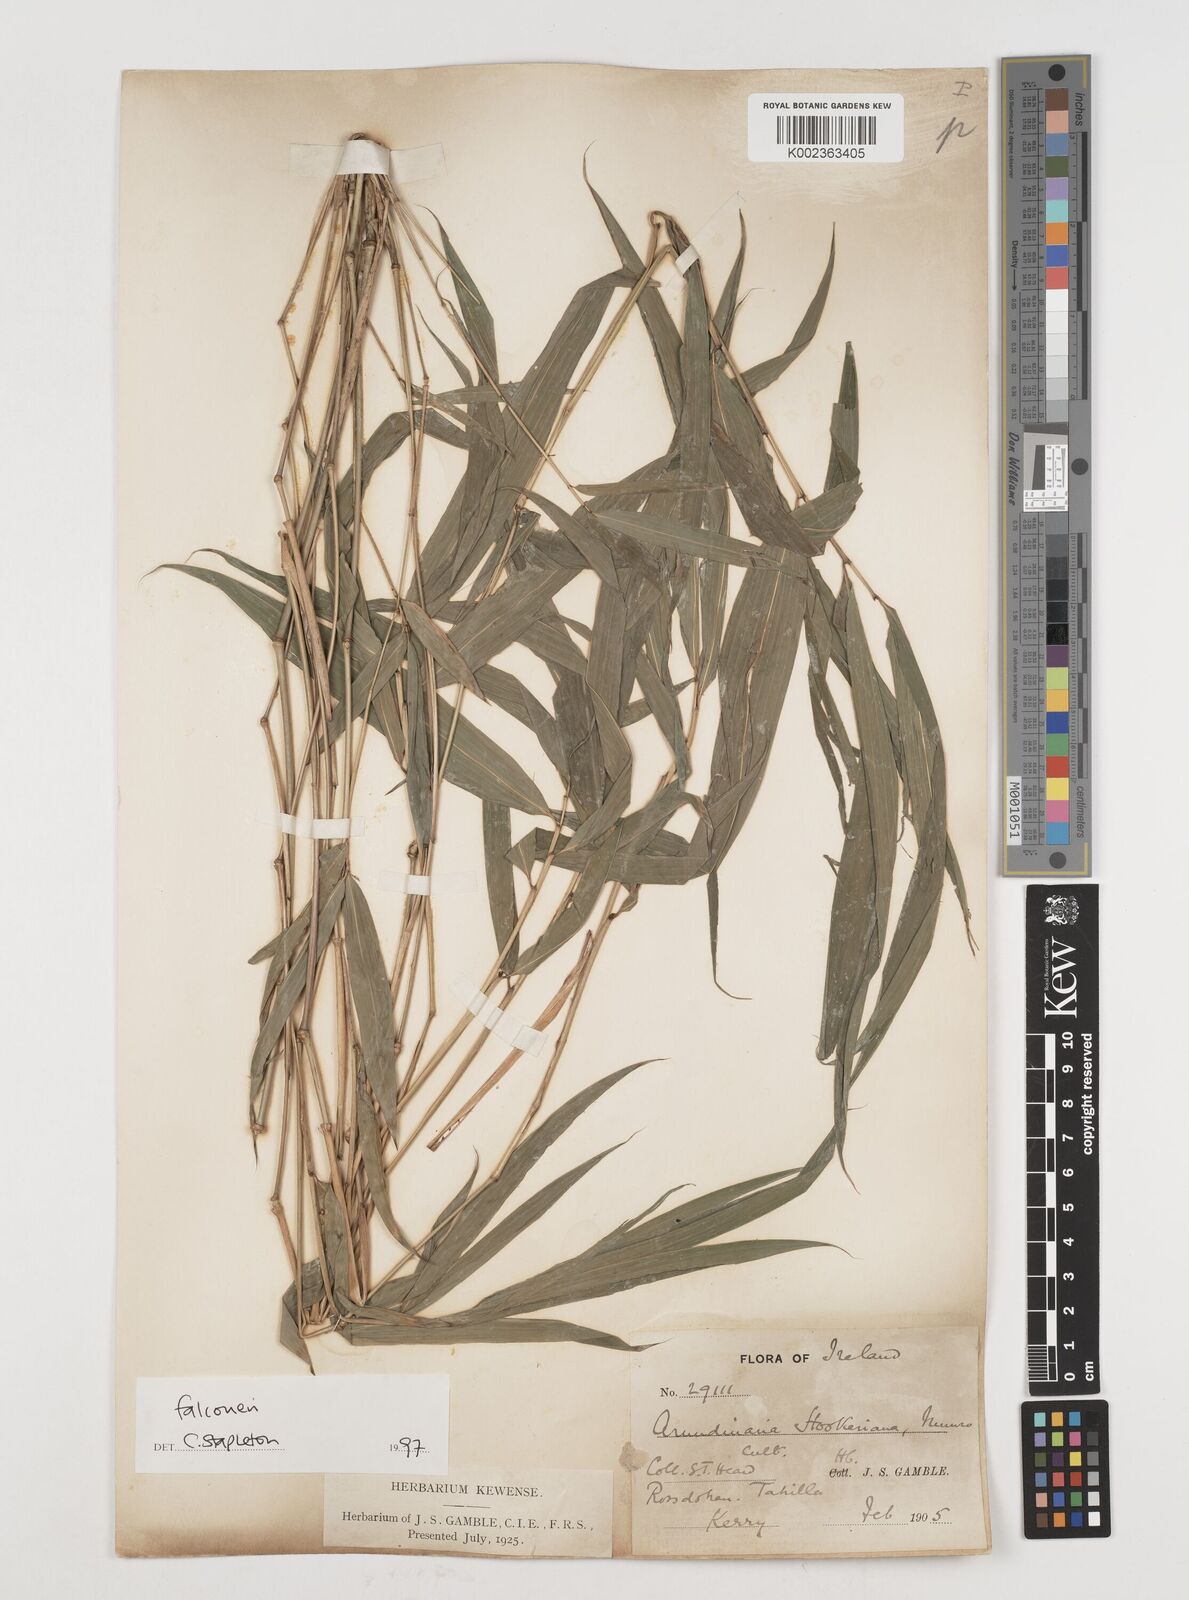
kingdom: Plantae
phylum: Tracheophyta
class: Liliopsida
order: Poales
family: Poaceae
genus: Himalayacalamus
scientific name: Himalayacalamus falconeri
